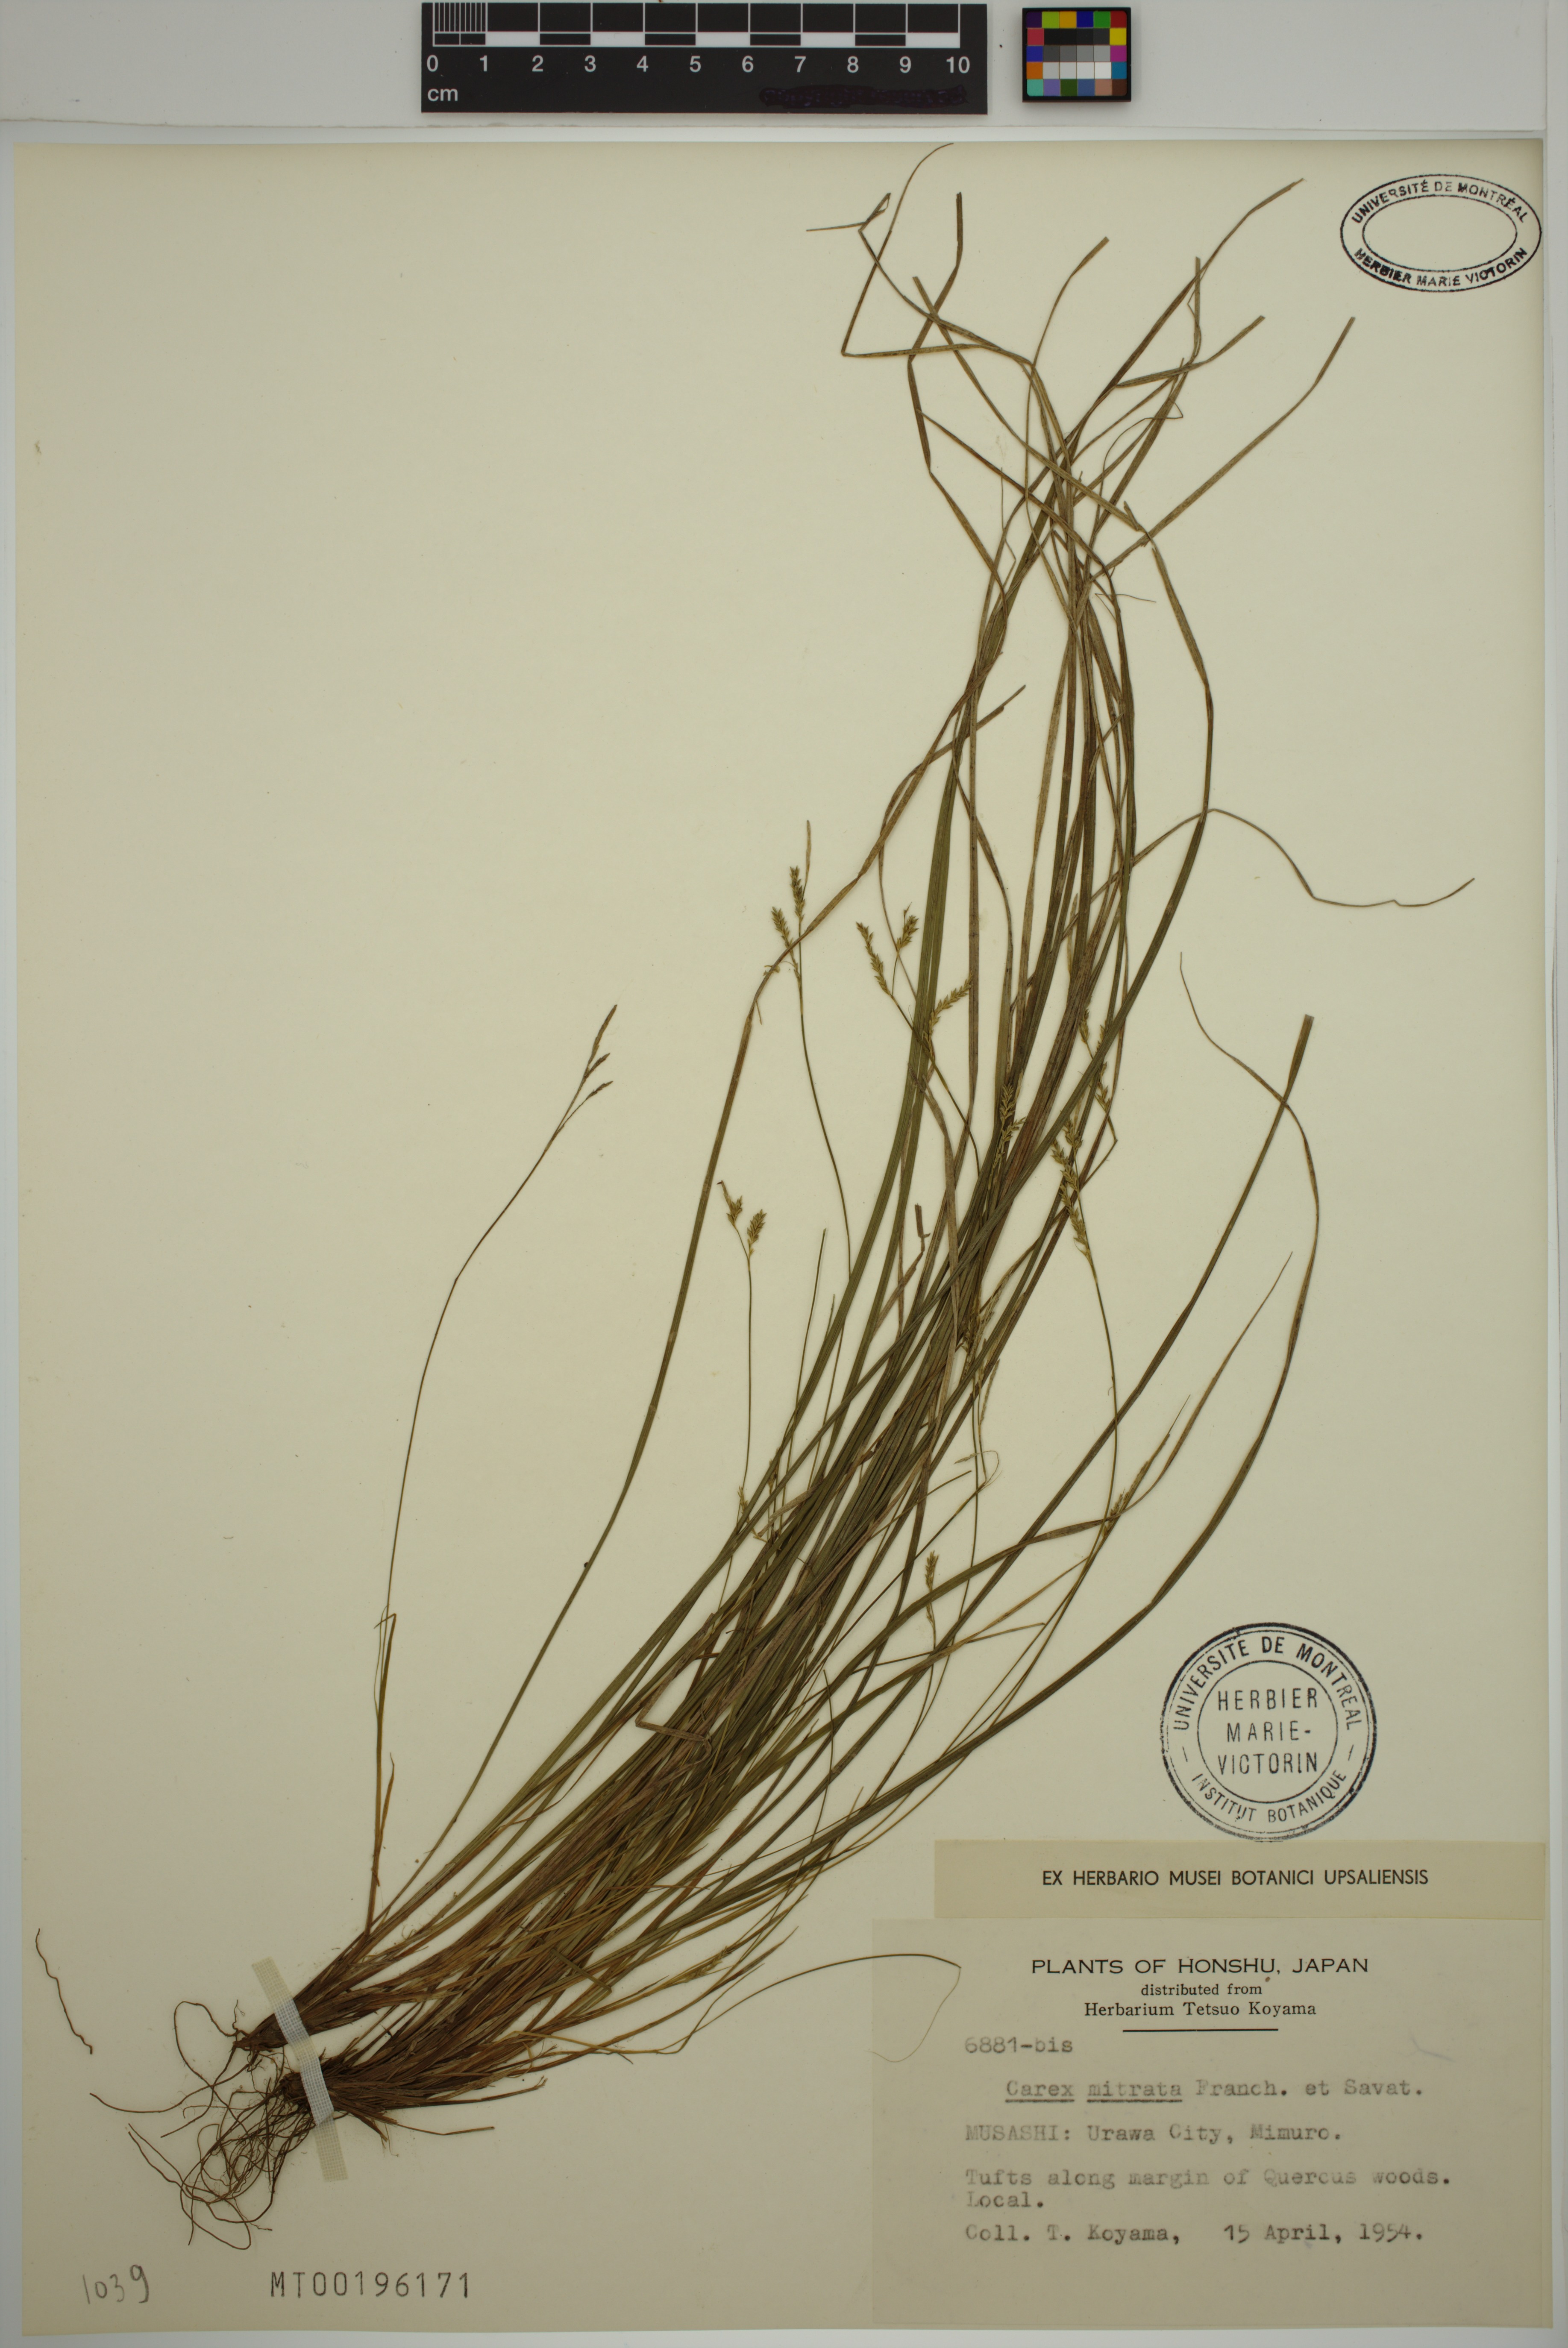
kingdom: Plantae
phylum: Tracheophyta
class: Liliopsida
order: Poales
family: Cyperaceae
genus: Carex
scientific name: Carex mitrata
